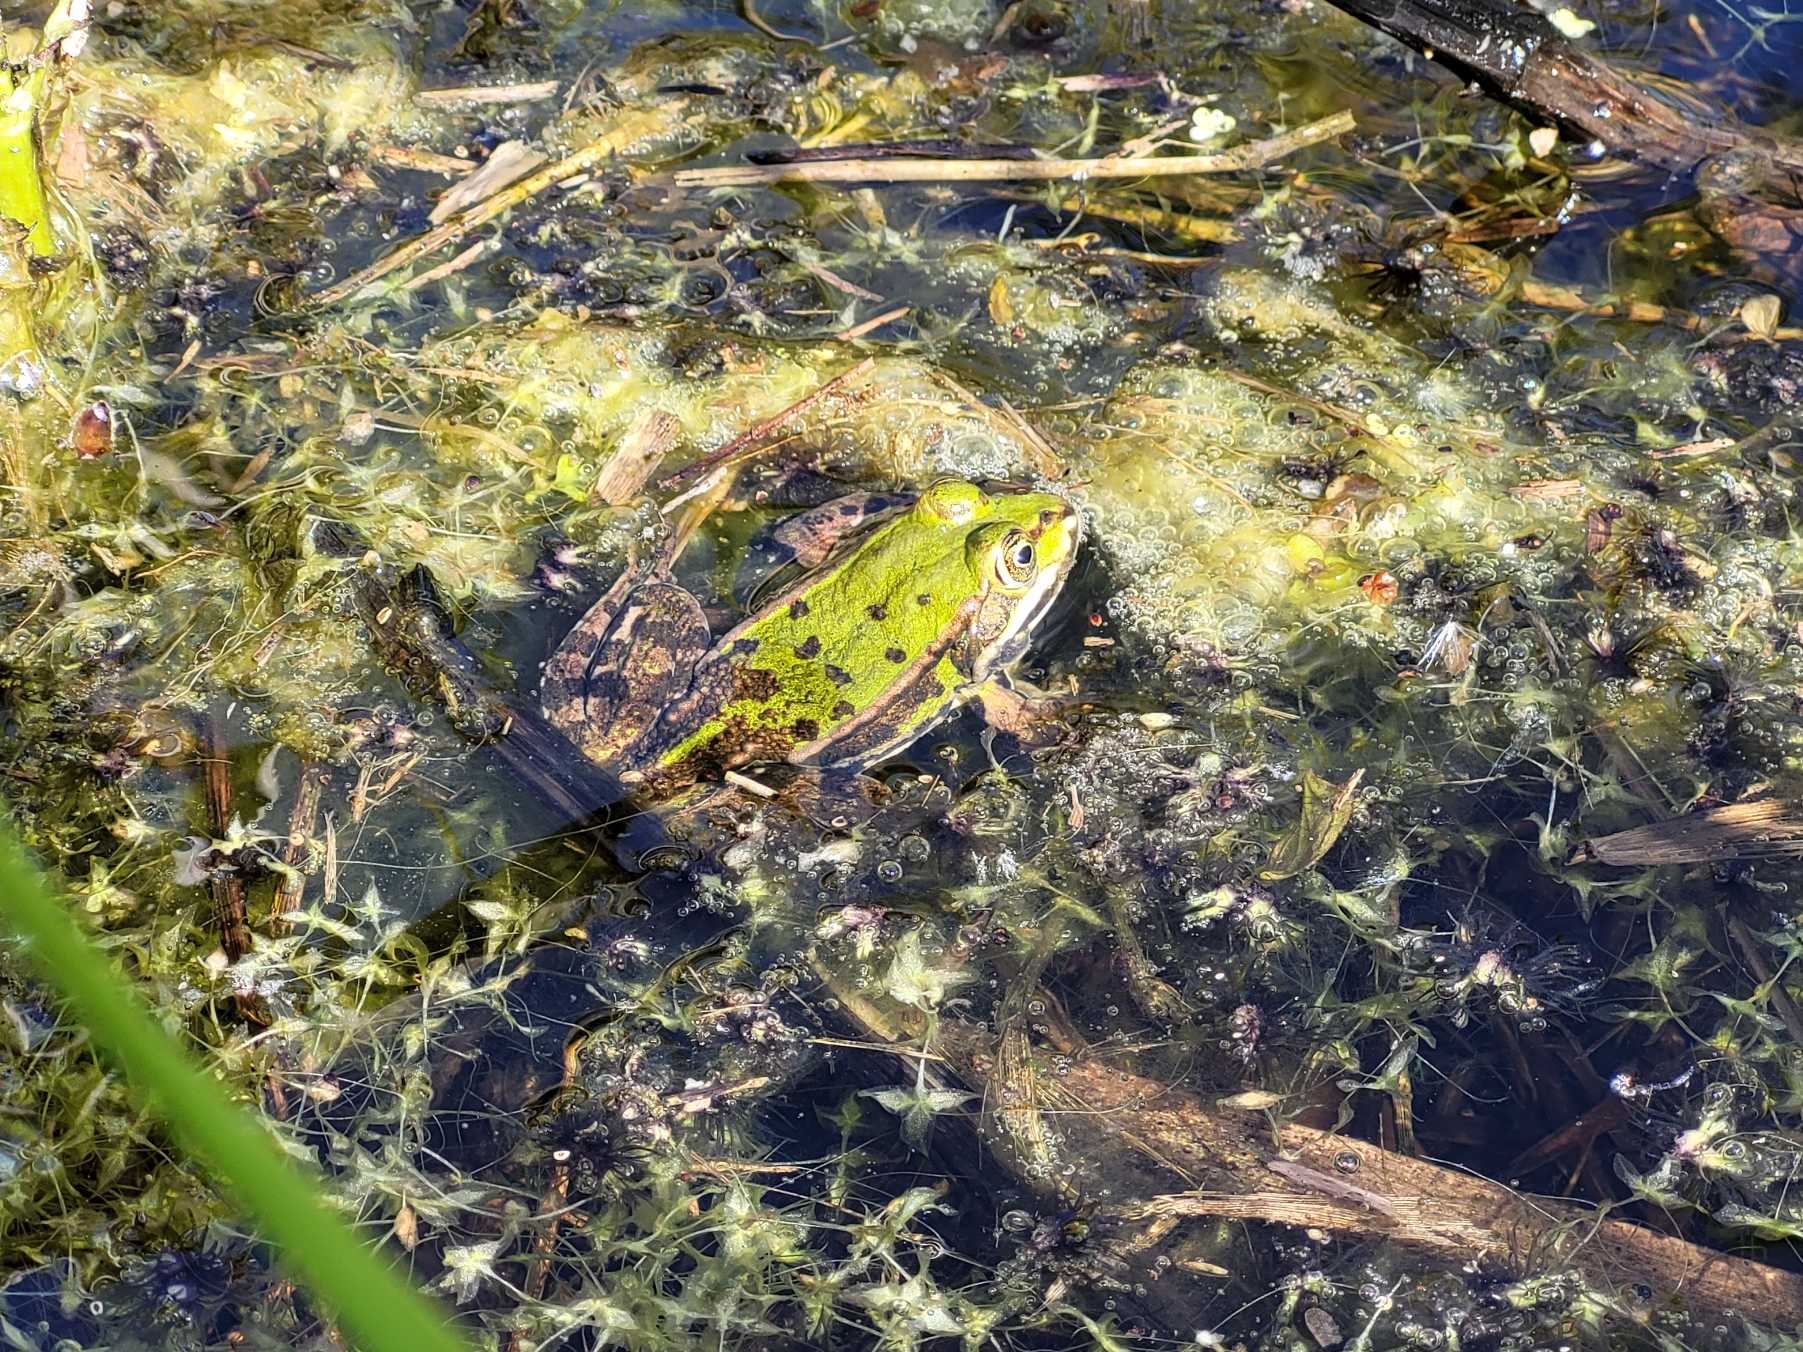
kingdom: Animalia
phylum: Chordata
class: Amphibia
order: Anura
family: Ranidae
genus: Pelophylax
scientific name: Pelophylax lessonae
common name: Grøn frø
